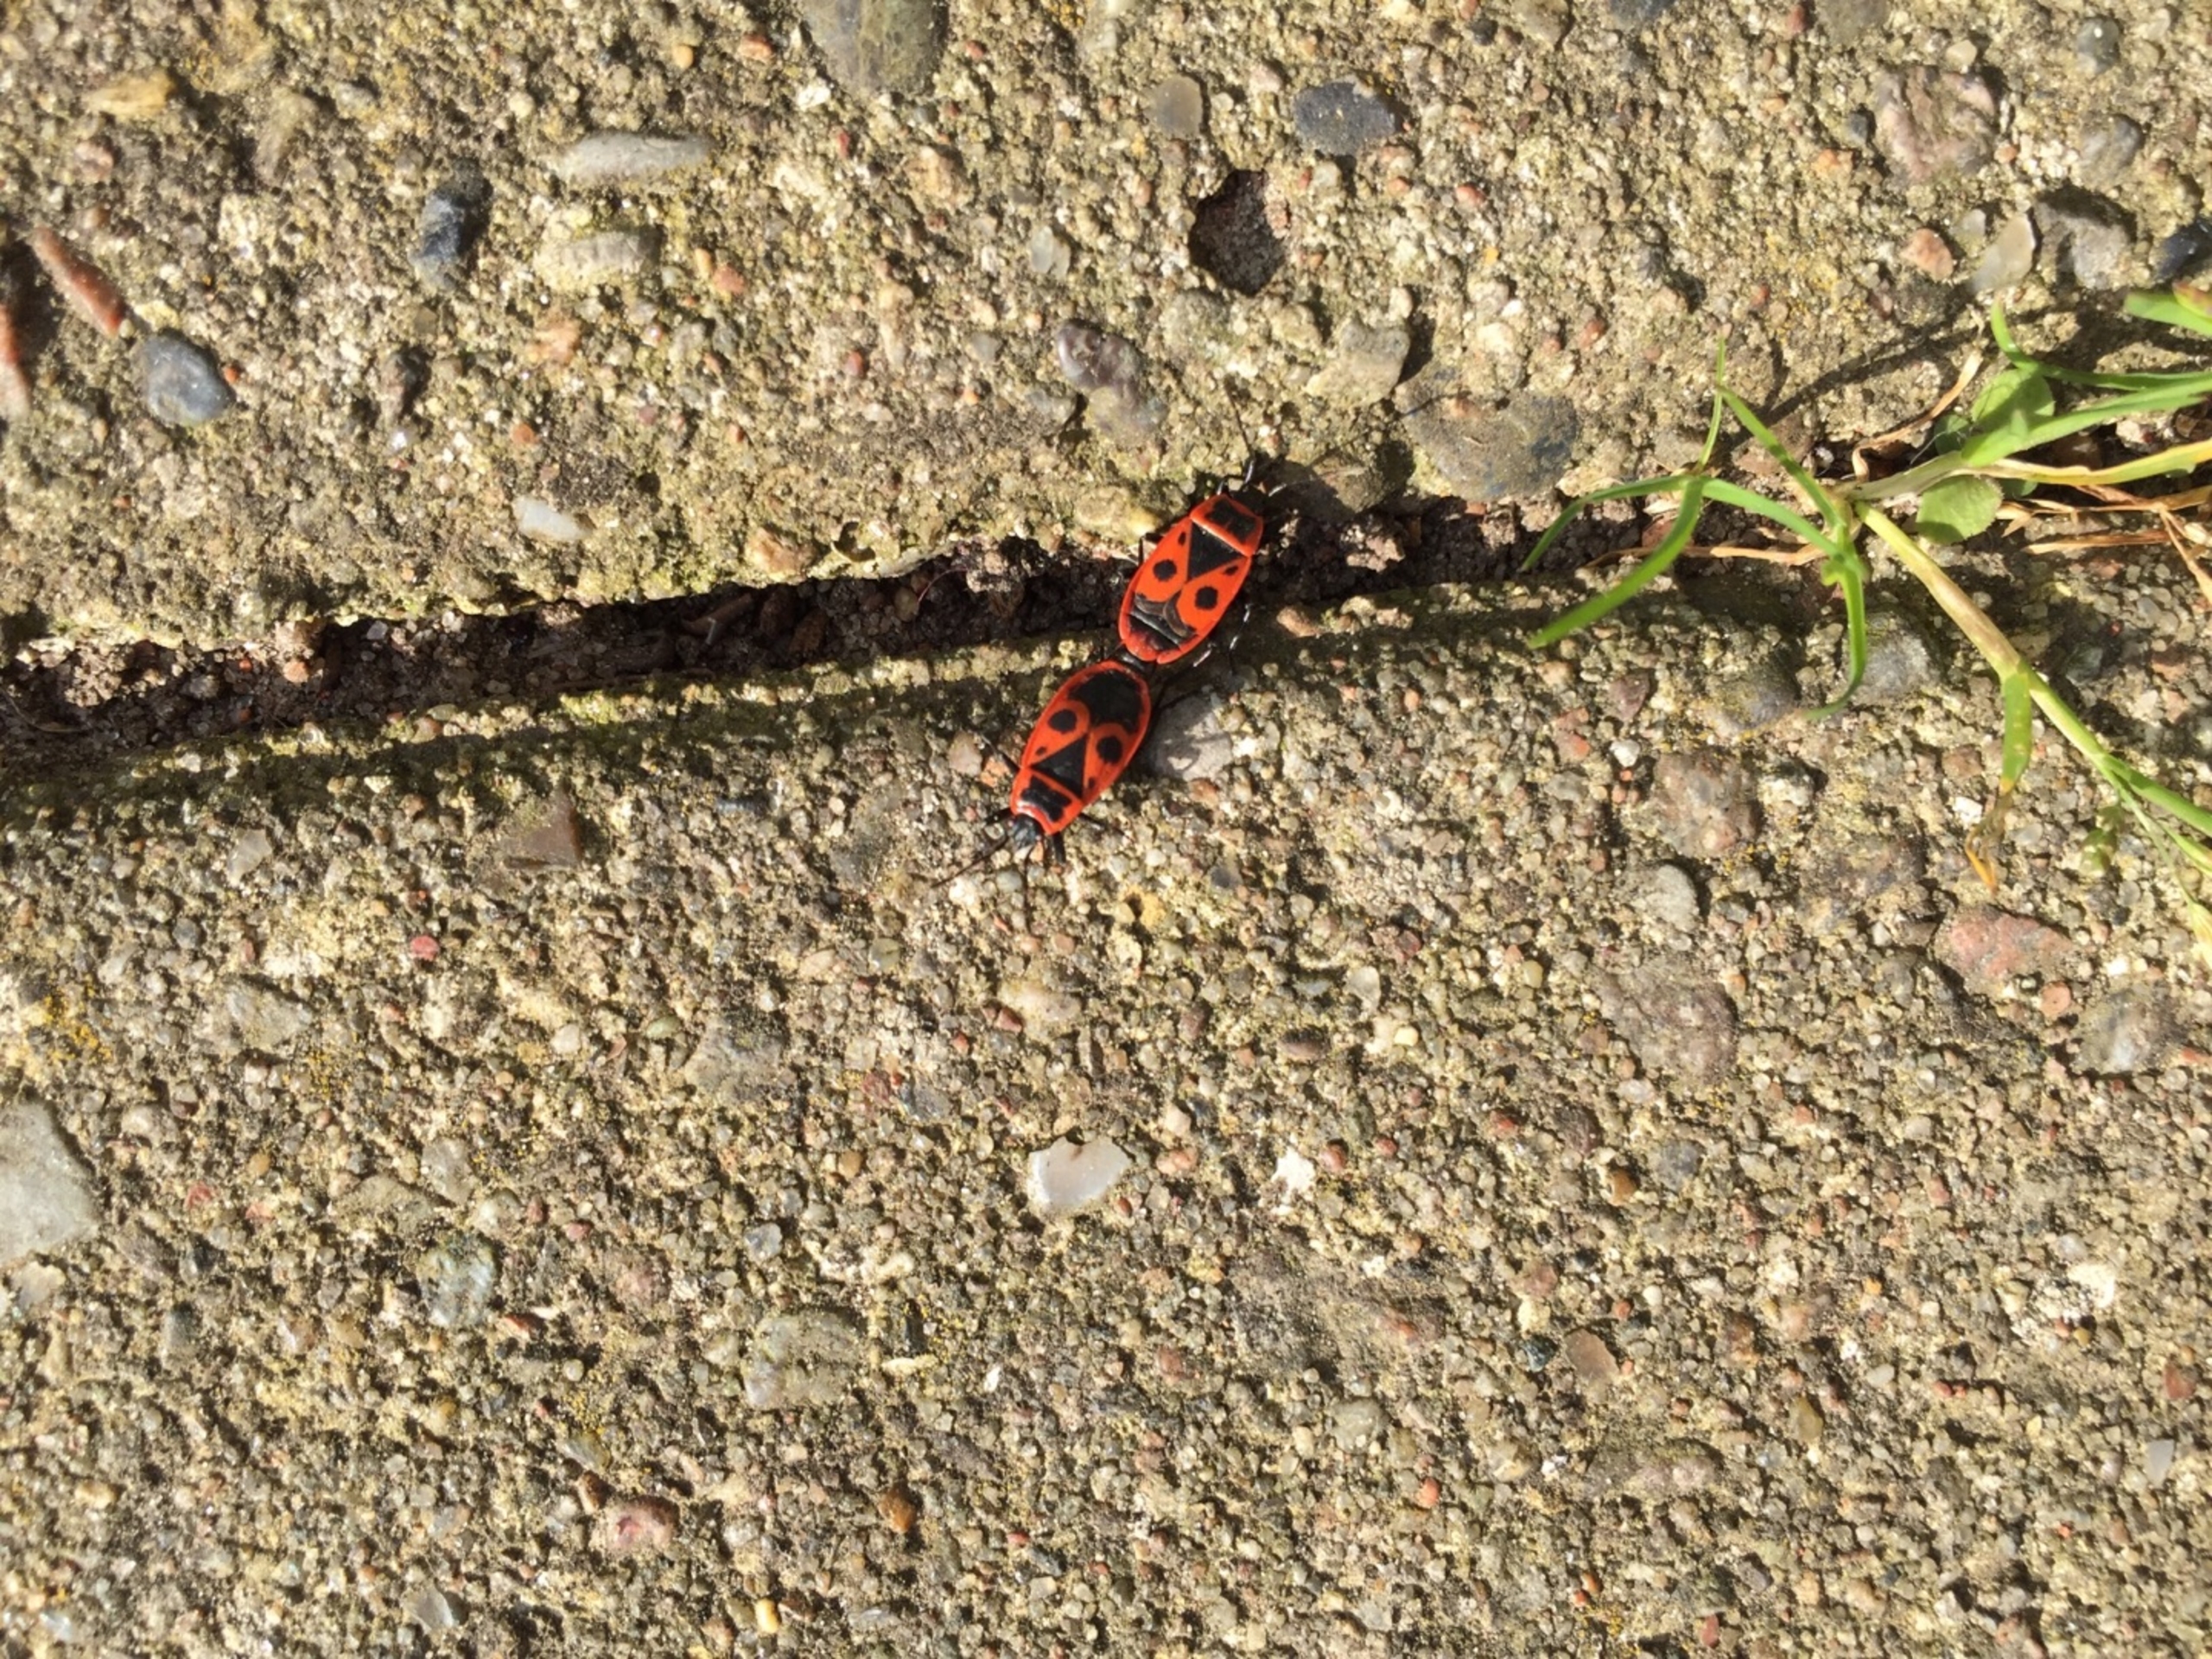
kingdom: Animalia
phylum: Arthropoda
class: Insecta
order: Hemiptera
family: Pyrrhocoridae
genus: Pyrrhocoris
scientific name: Pyrrhocoris apterus
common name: Ildtæge
